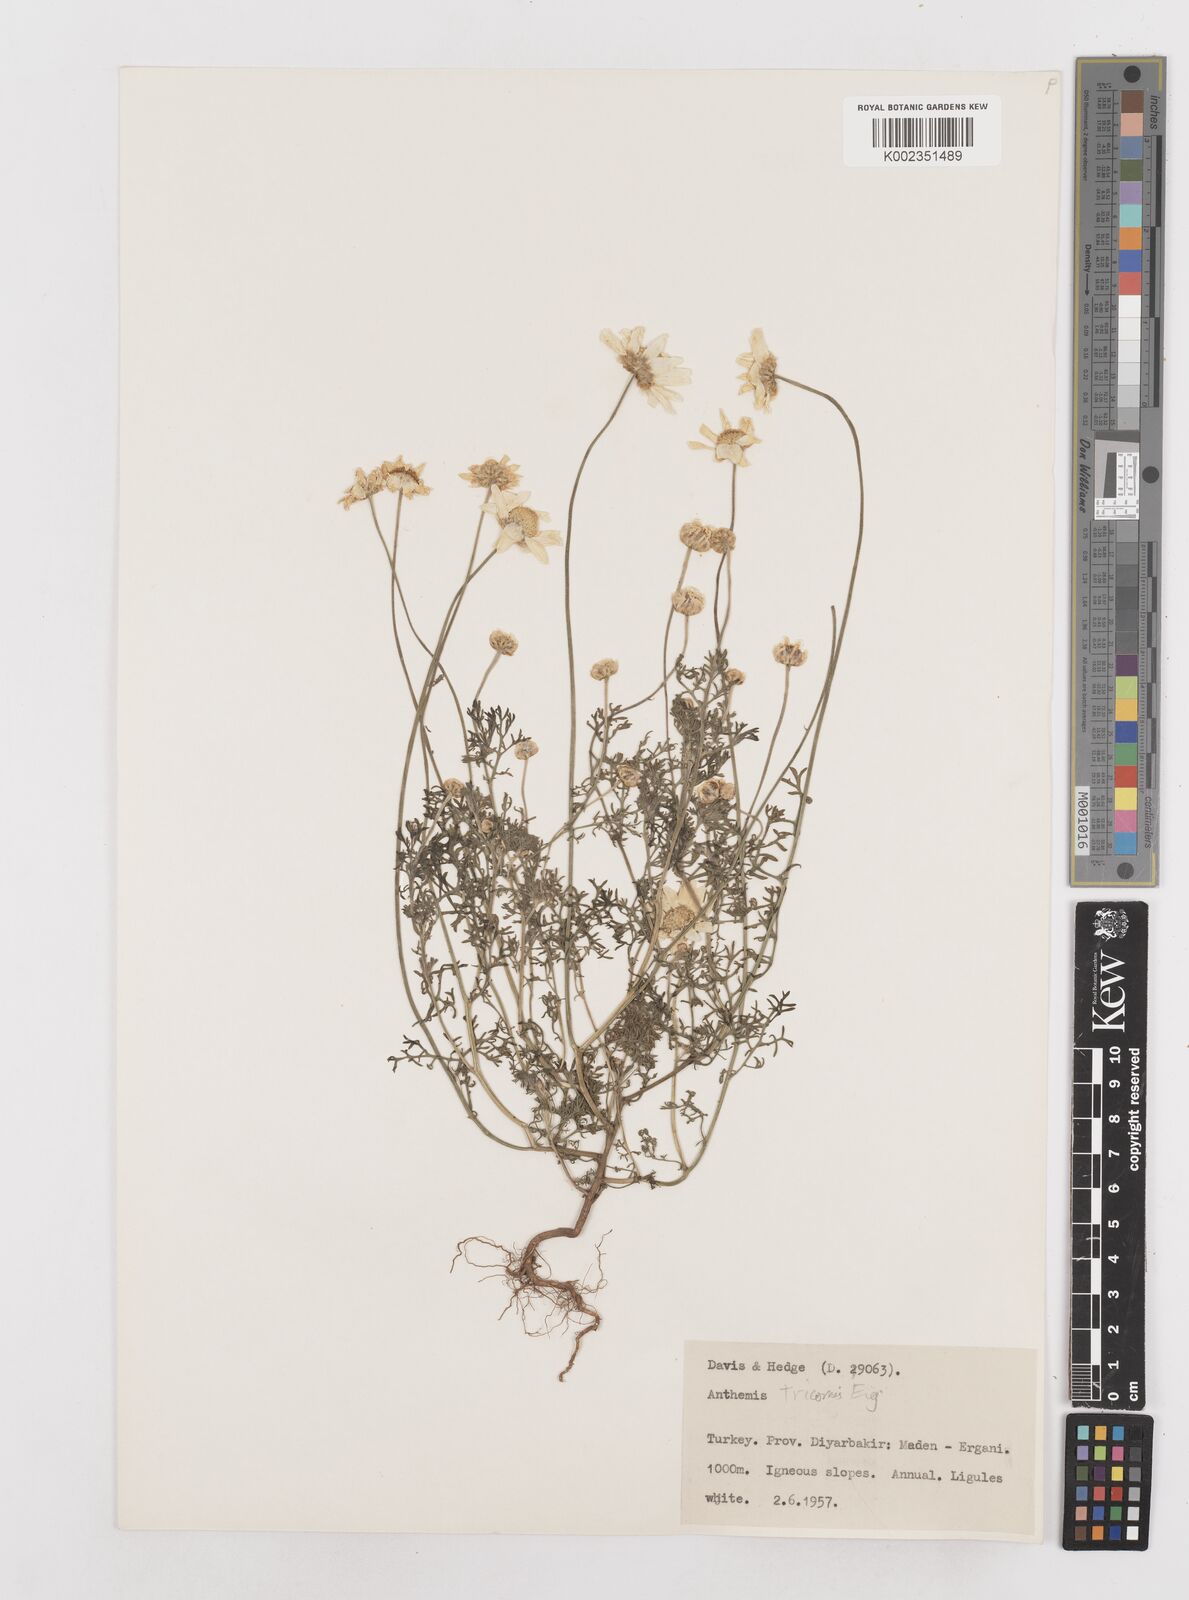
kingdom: Plantae
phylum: Tracheophyta
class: Magnoliopsida
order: Asterales
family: Asteraceae
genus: Anthemis
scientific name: Anthemis tricornis
